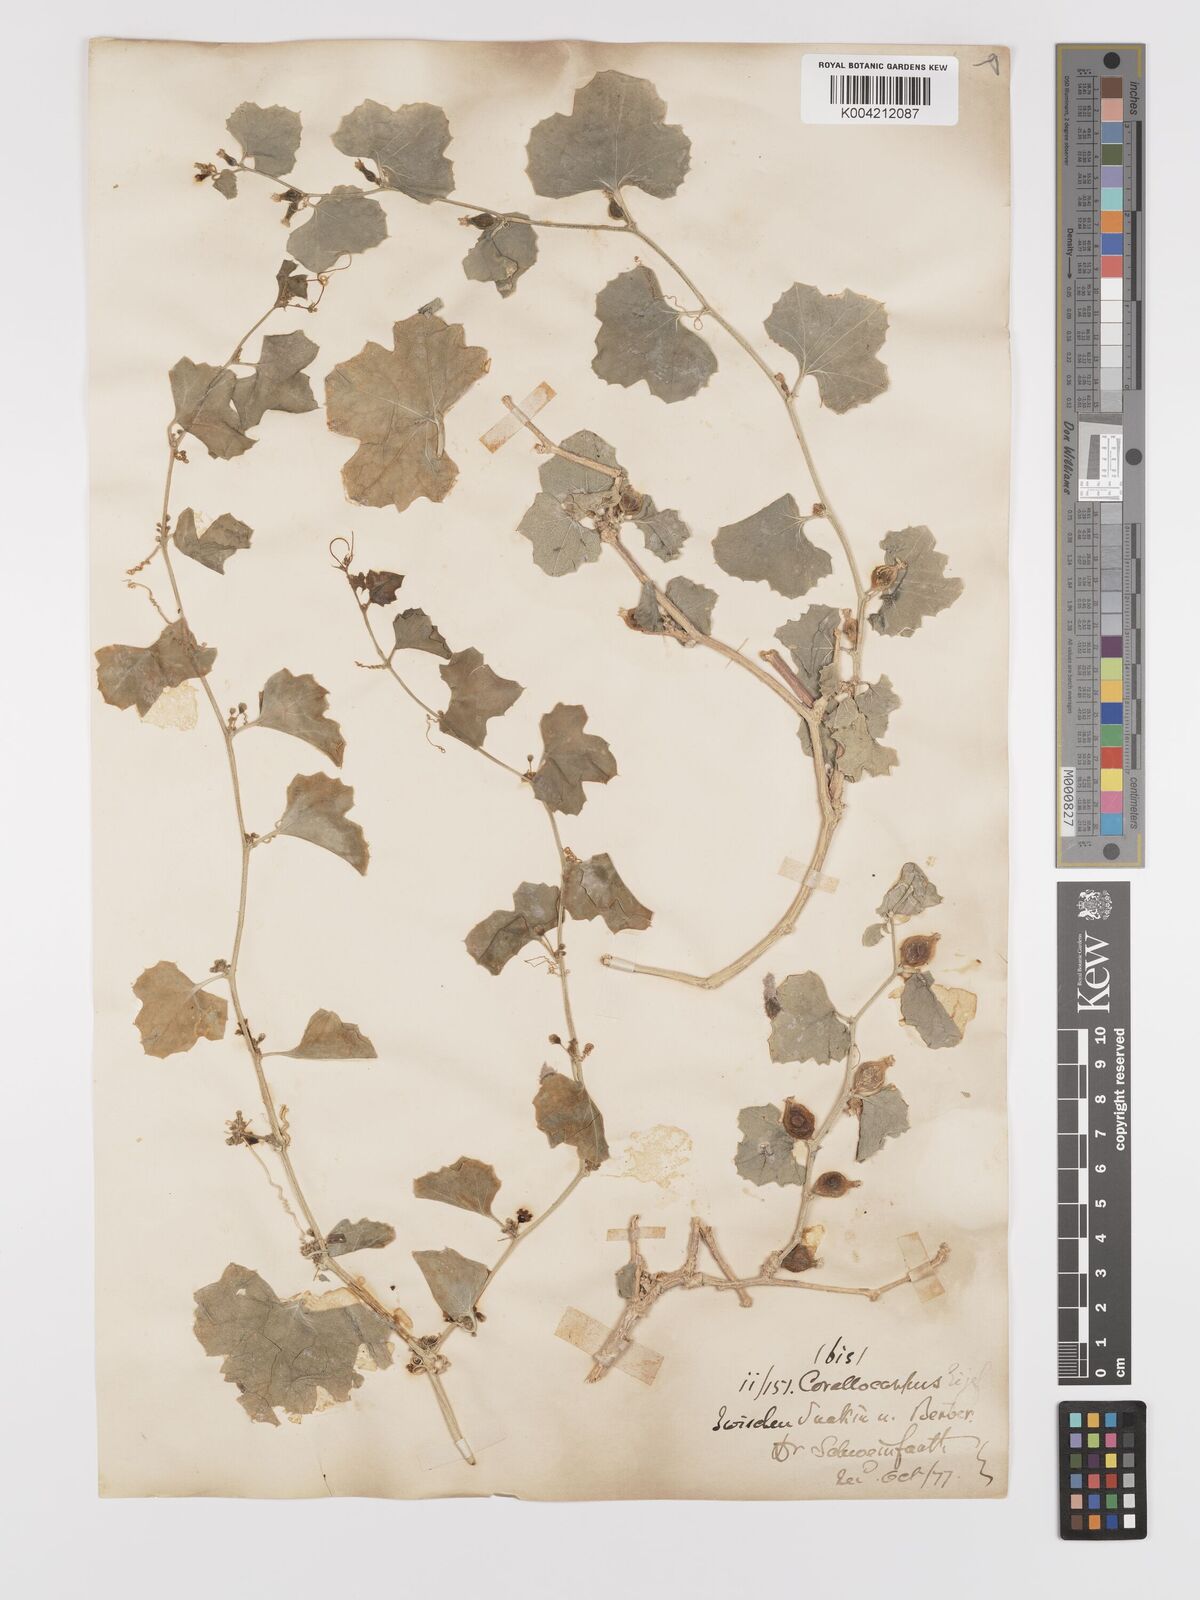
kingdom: Plantae
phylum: Tracheophyta
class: Magnoliopsida
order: Cucurbitales
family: Cucurbitaceae
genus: Kedrostis
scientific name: Kedrostis gijef
